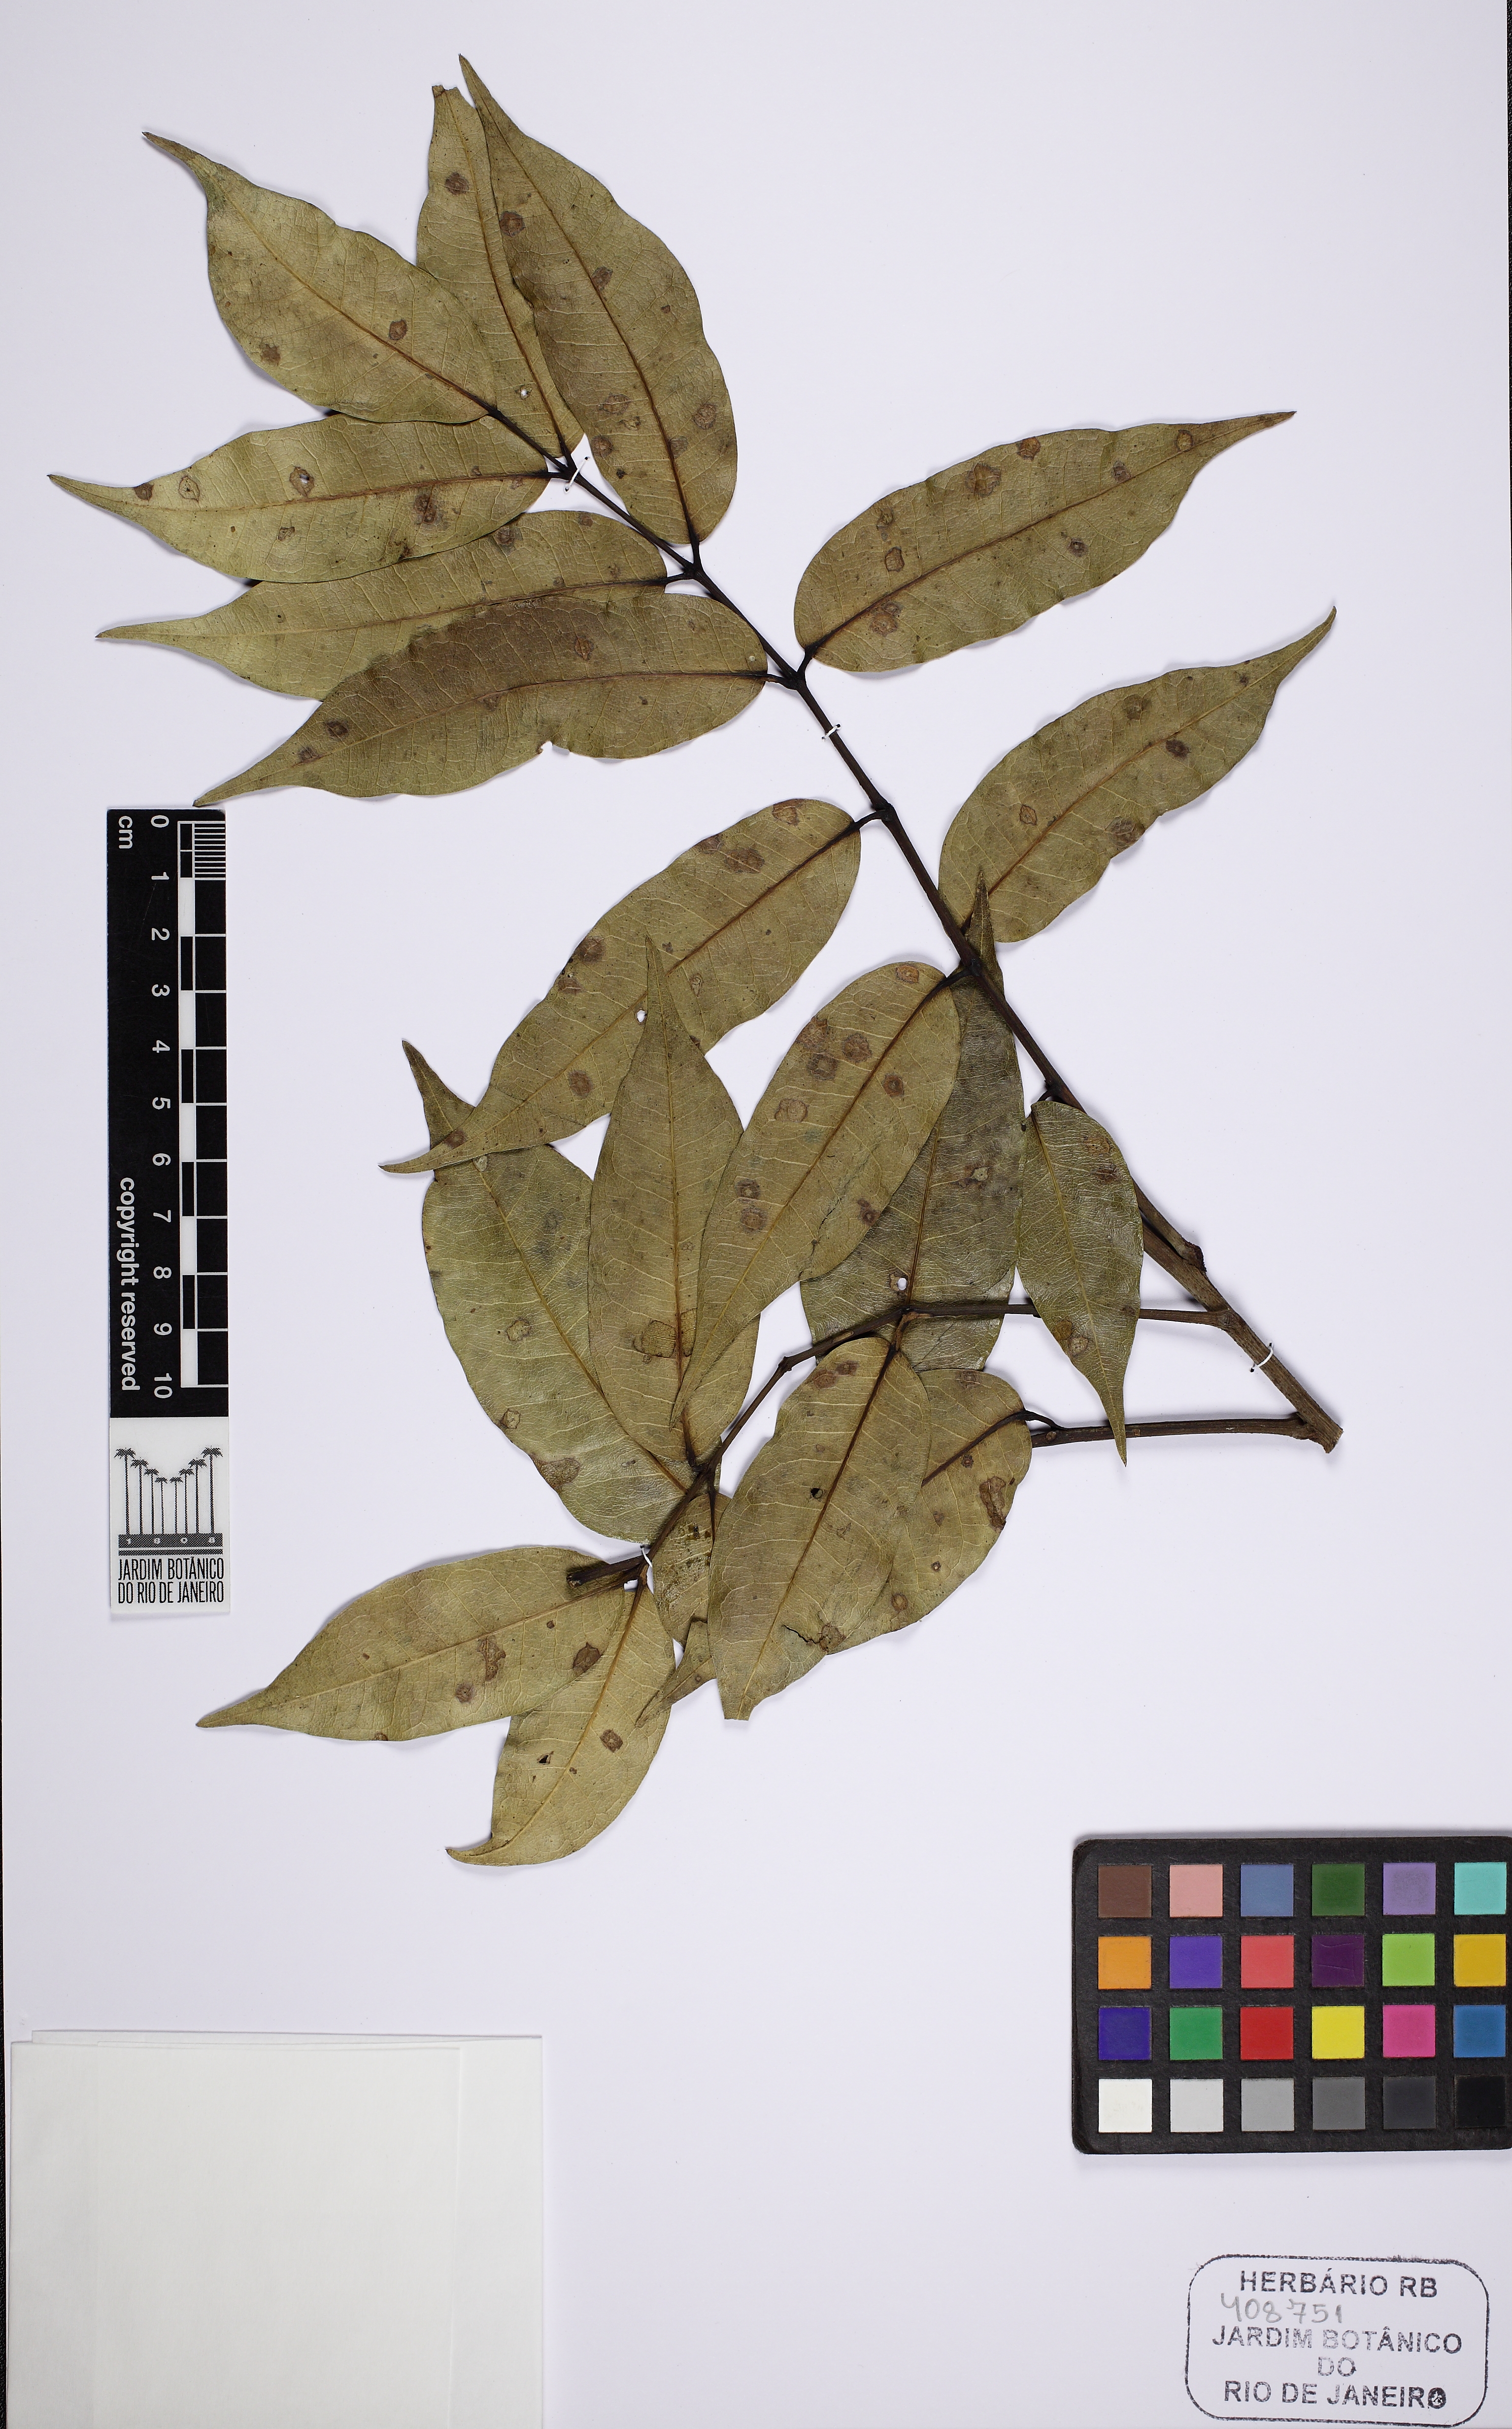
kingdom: Plantae
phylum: Tracheophyta
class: Magnoliopsida
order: Sapindales
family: Burseraceae
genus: Trattinnickia
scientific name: Trattinnickia glaziovii
